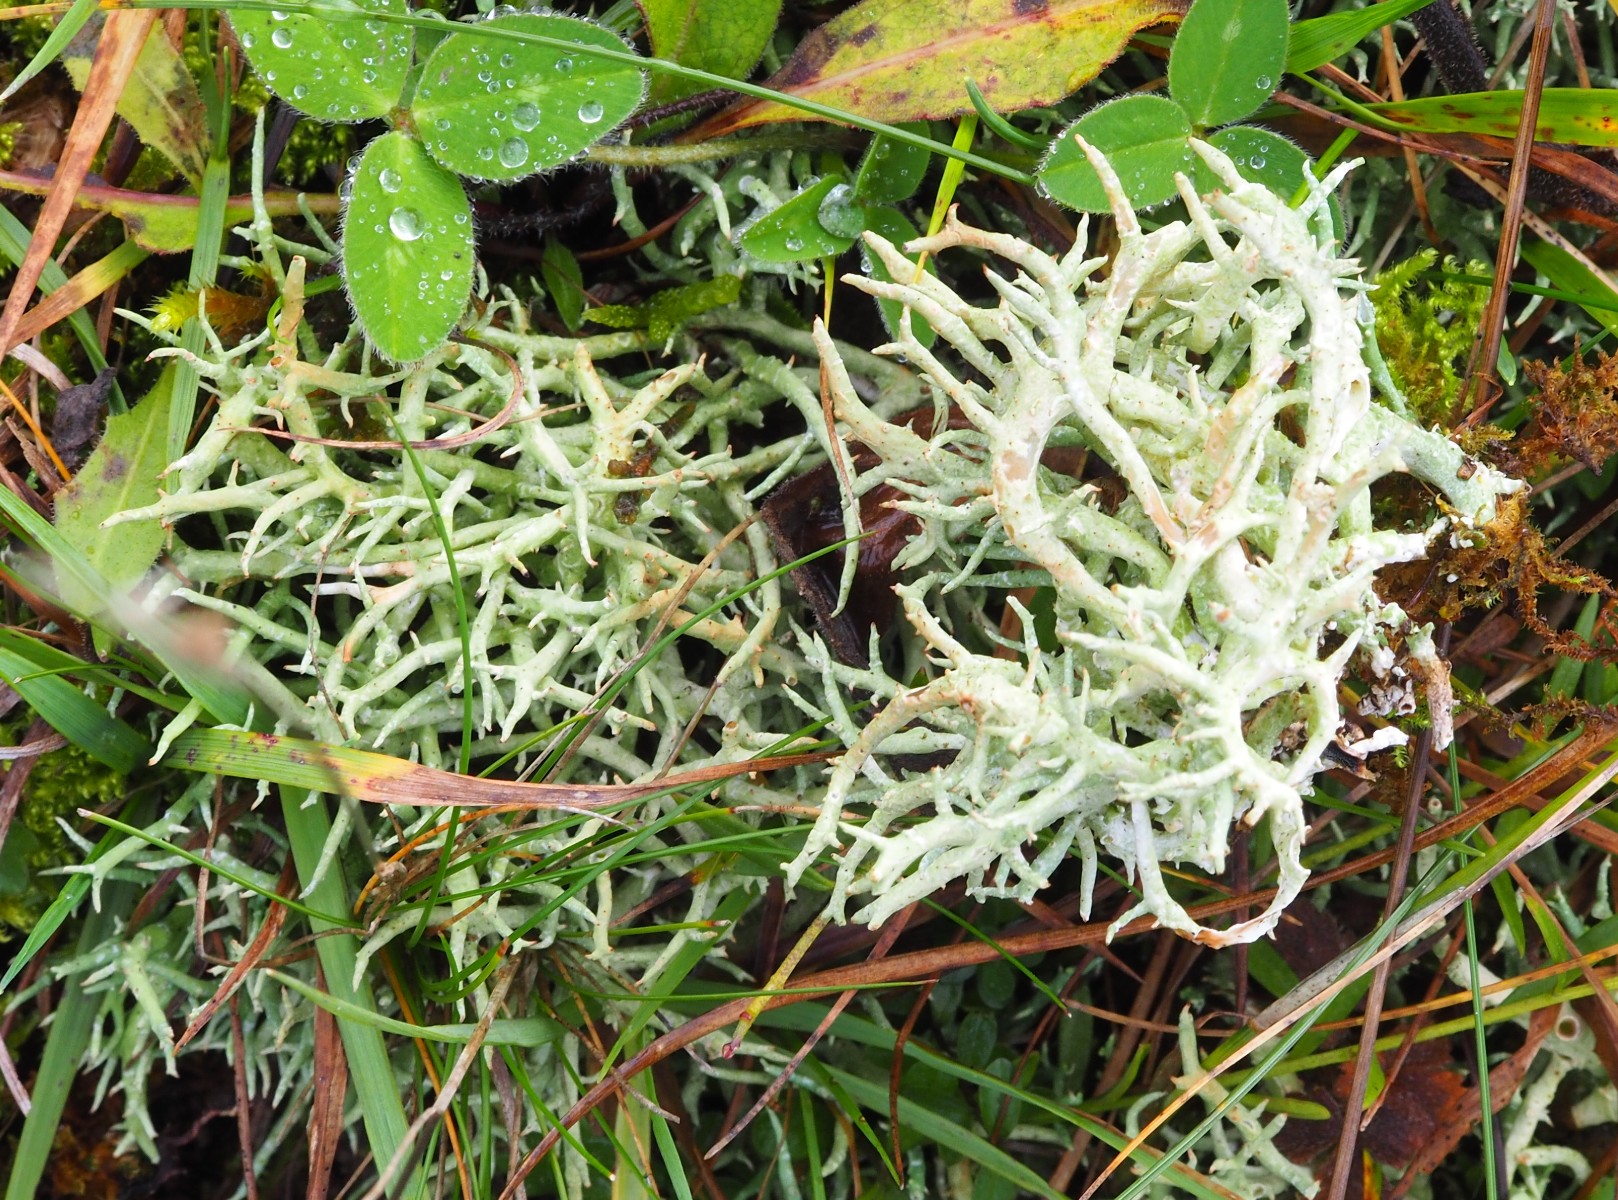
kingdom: Fungi
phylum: Ascomycota
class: Lecanoromycetes
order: Lecanorales
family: Cladoniaceae
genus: Cladonia
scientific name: Cladonia furcata
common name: kløftet bægerlav
